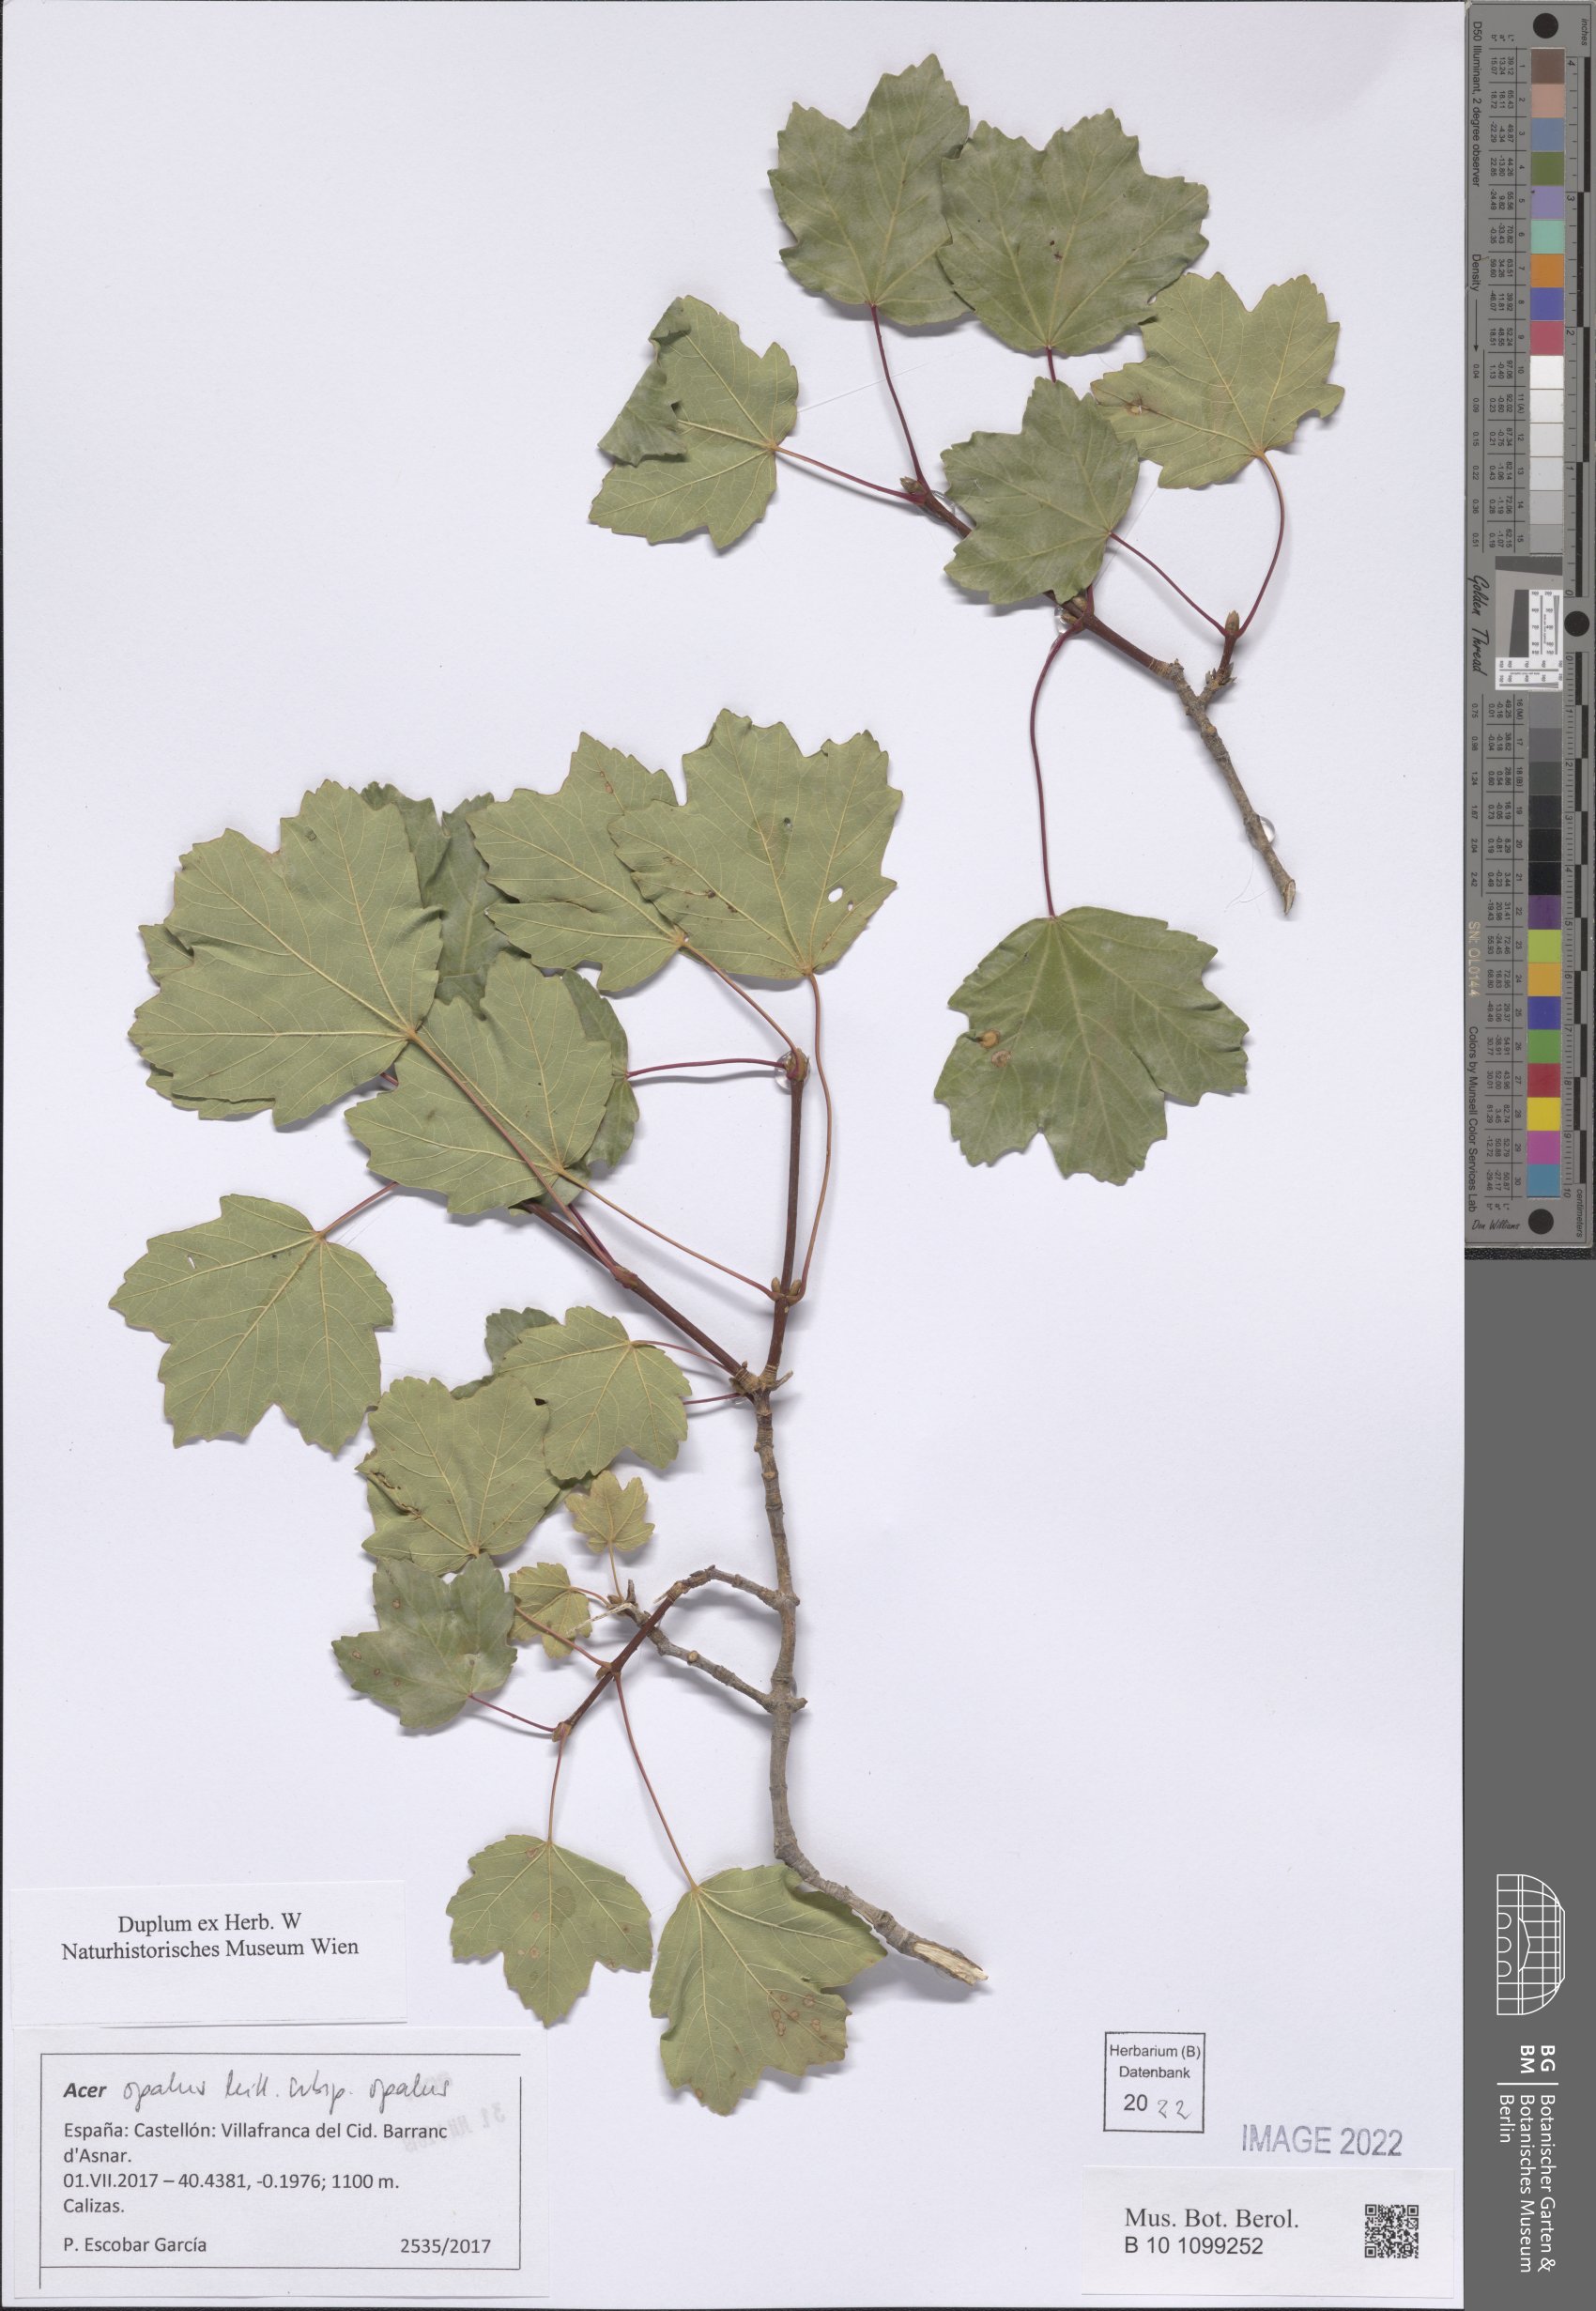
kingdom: Plantae
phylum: Tracheophyta
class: Magnoliopsida
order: Sapindales
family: Sapindaceae
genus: Acer
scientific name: Acer opalus
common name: Italian maple
